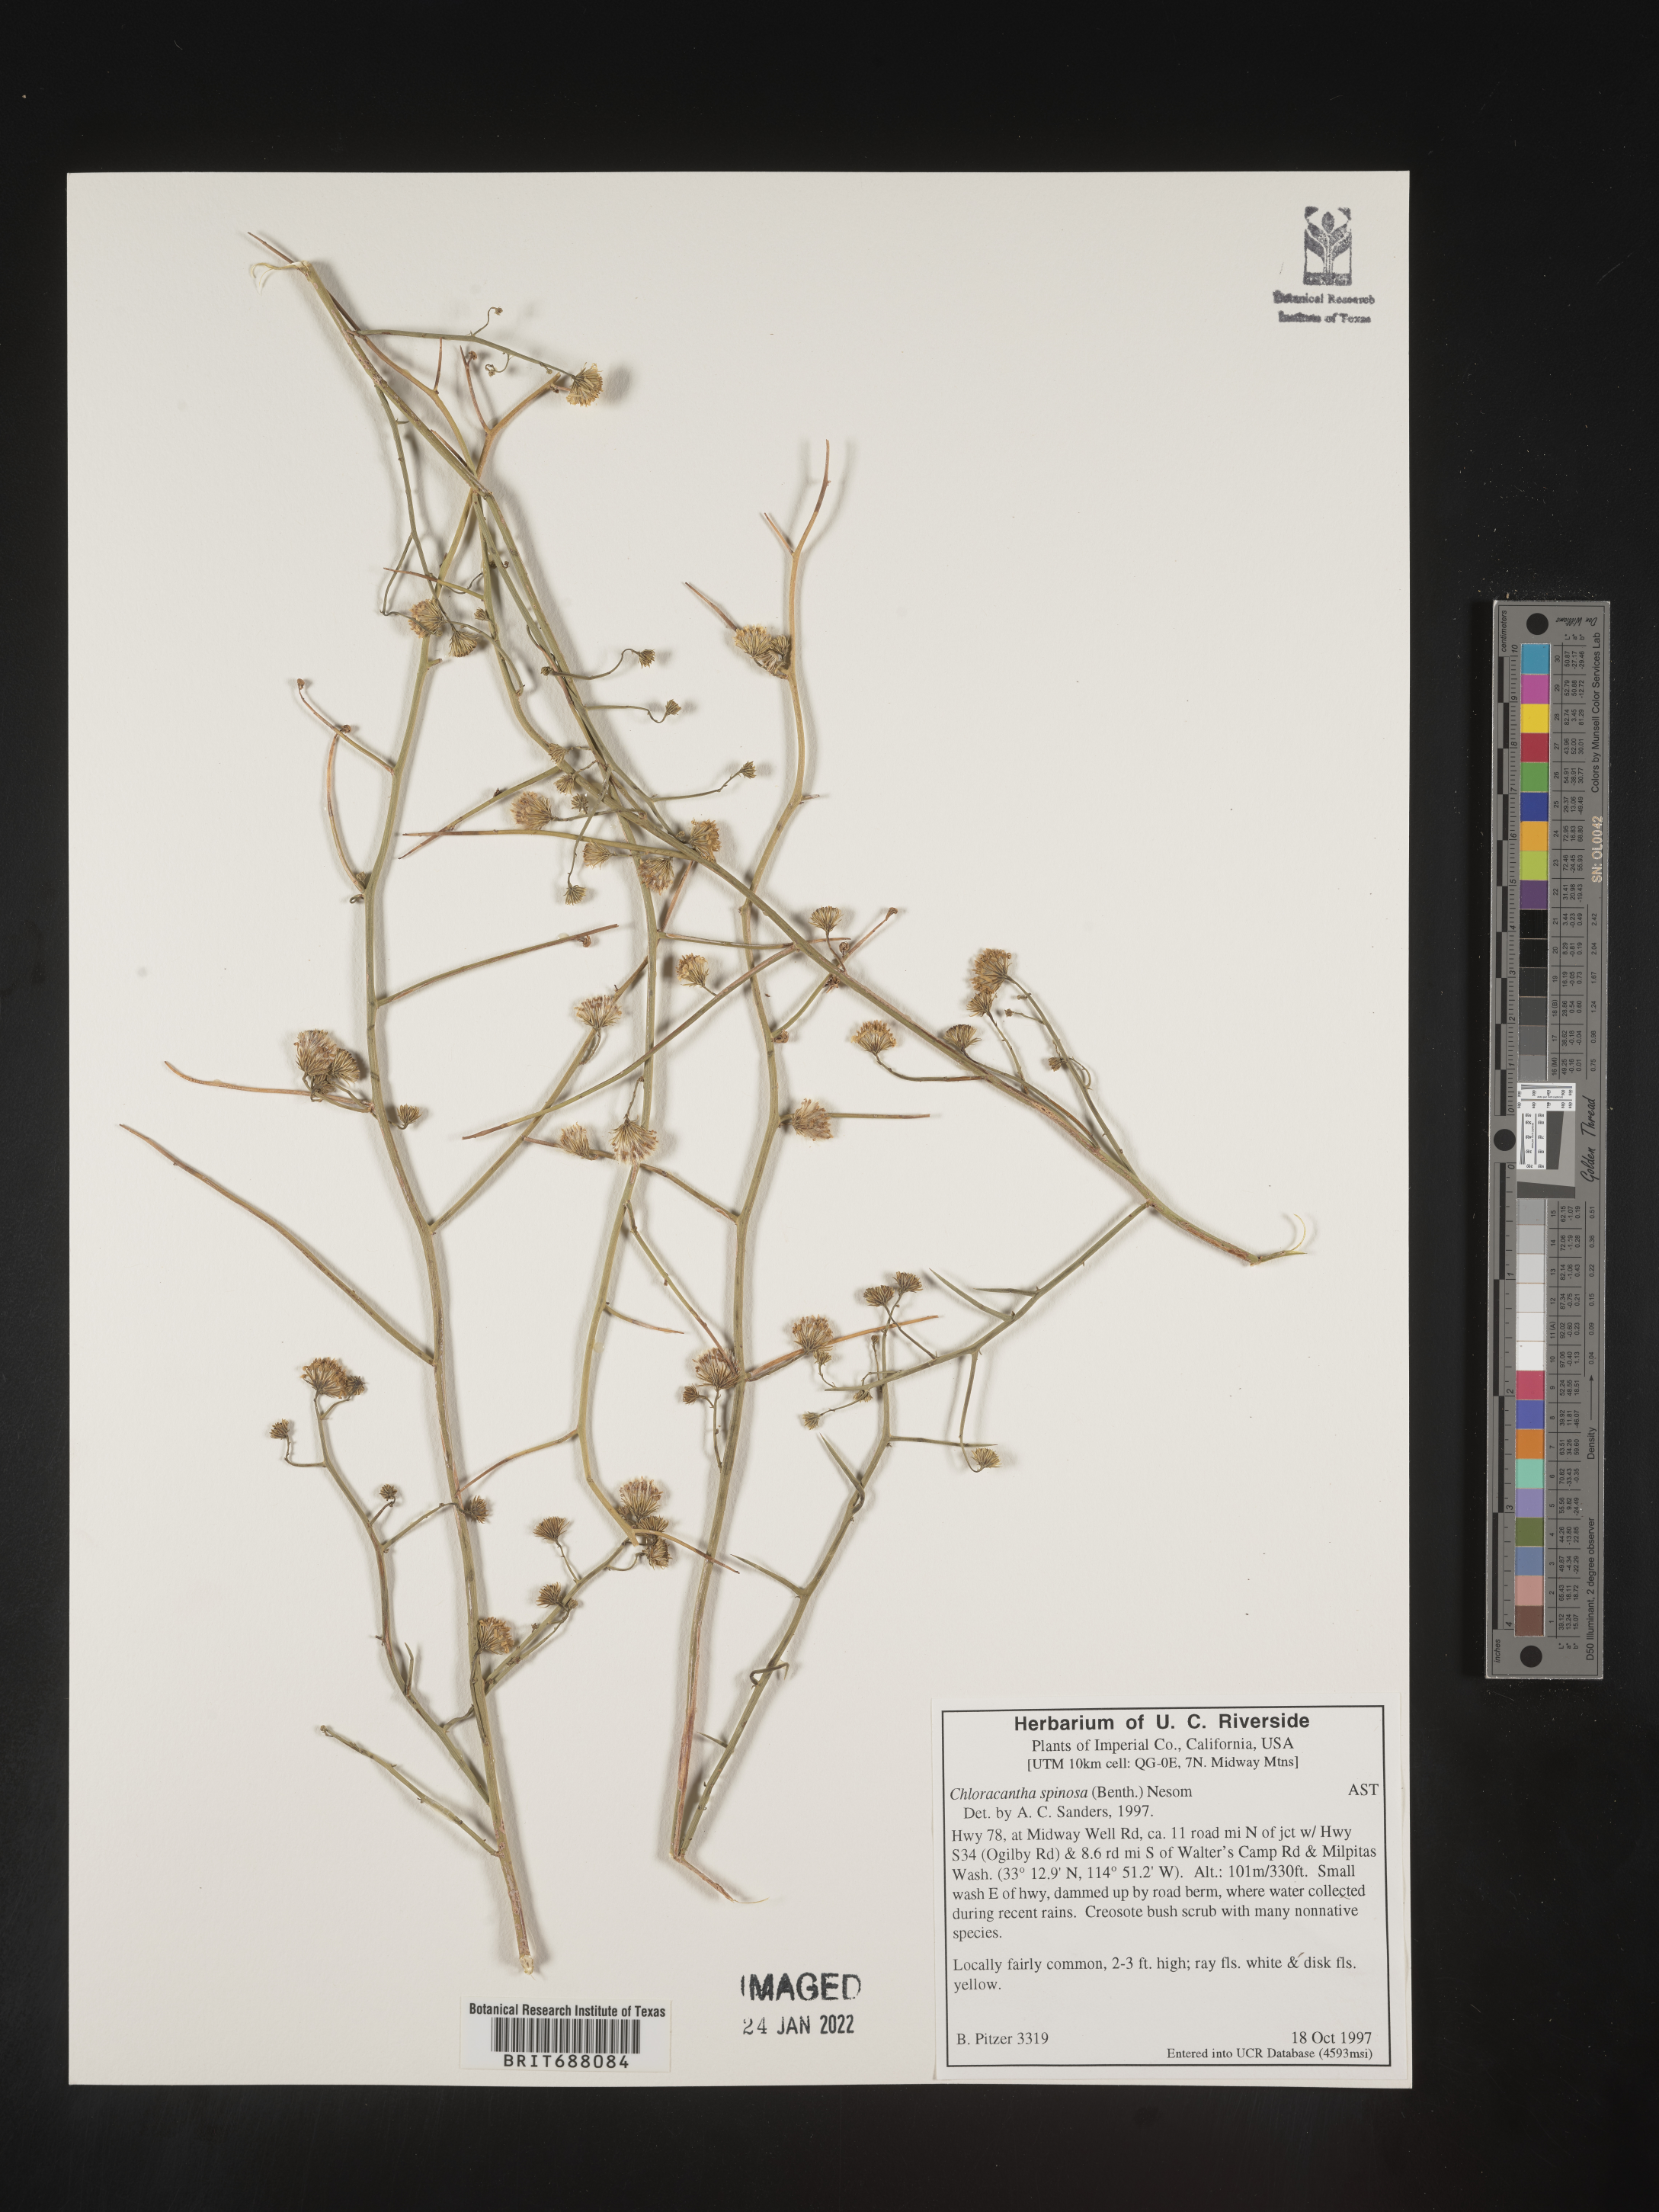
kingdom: Plantae
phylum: Tracheophyta
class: Magnoliopsida
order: Asterales
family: Asteraceae
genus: Chloracantha
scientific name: Chloracantha spinosa
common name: Mexican devilweed
